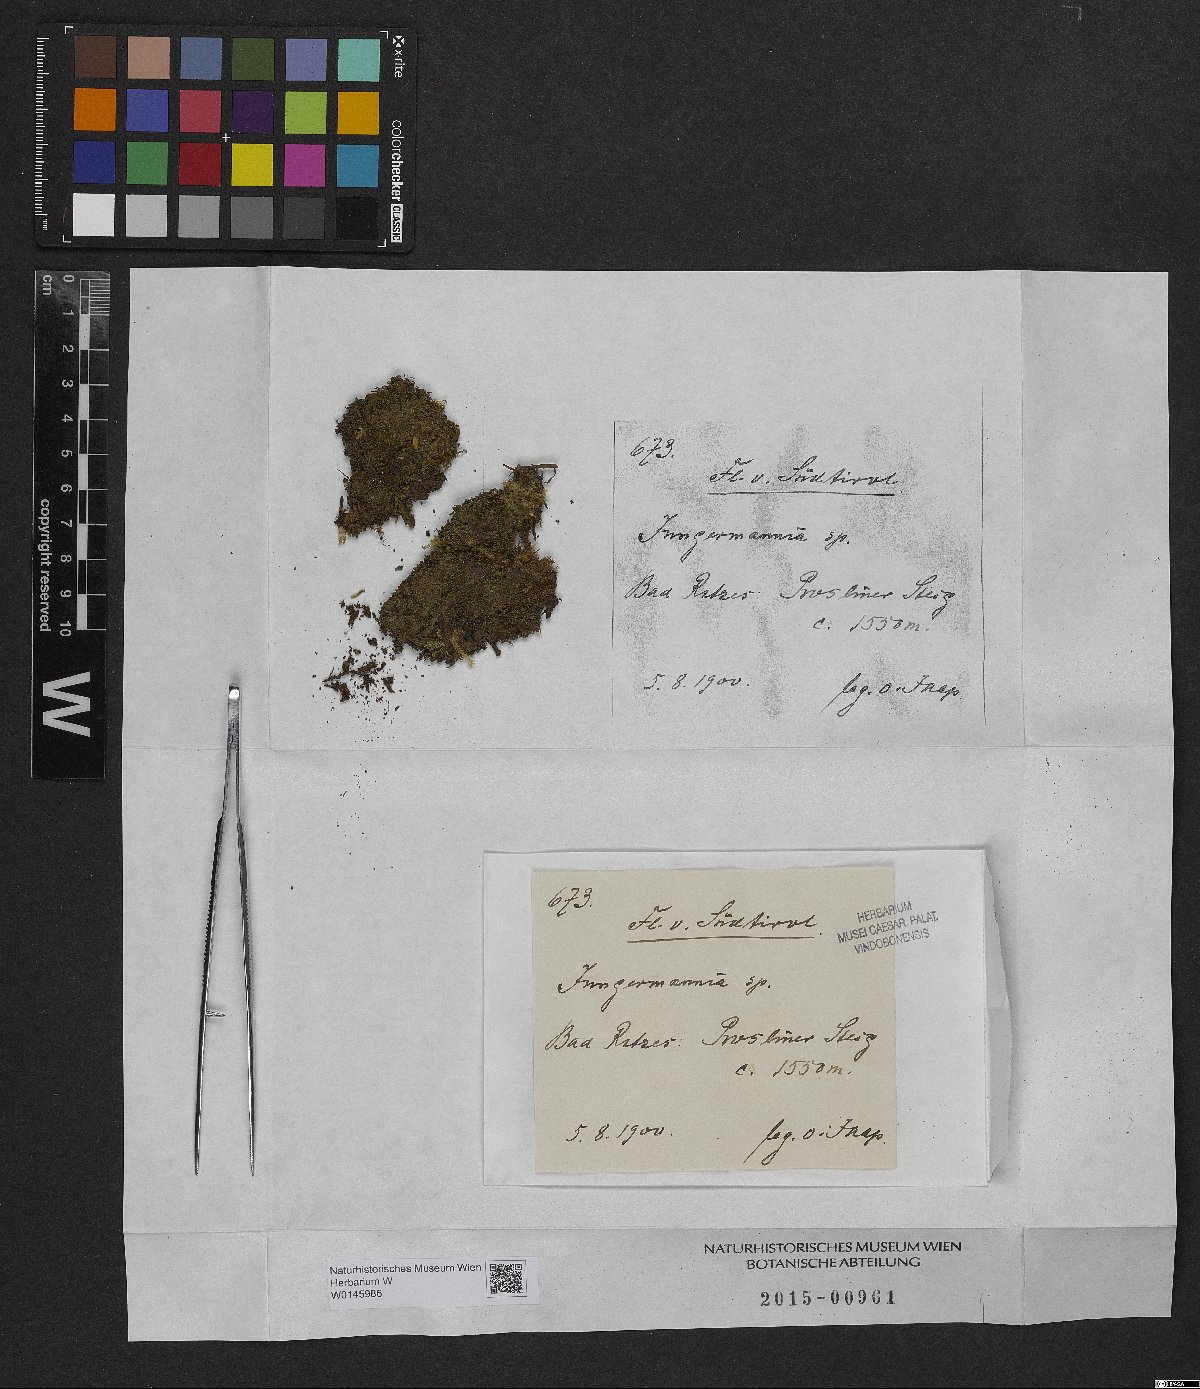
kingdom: Plantae
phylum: Marchantiophyta
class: Jungermanniopsida
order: Jungermanniales
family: Jungermanniaceae
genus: Jungermannia
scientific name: Jungermannia
